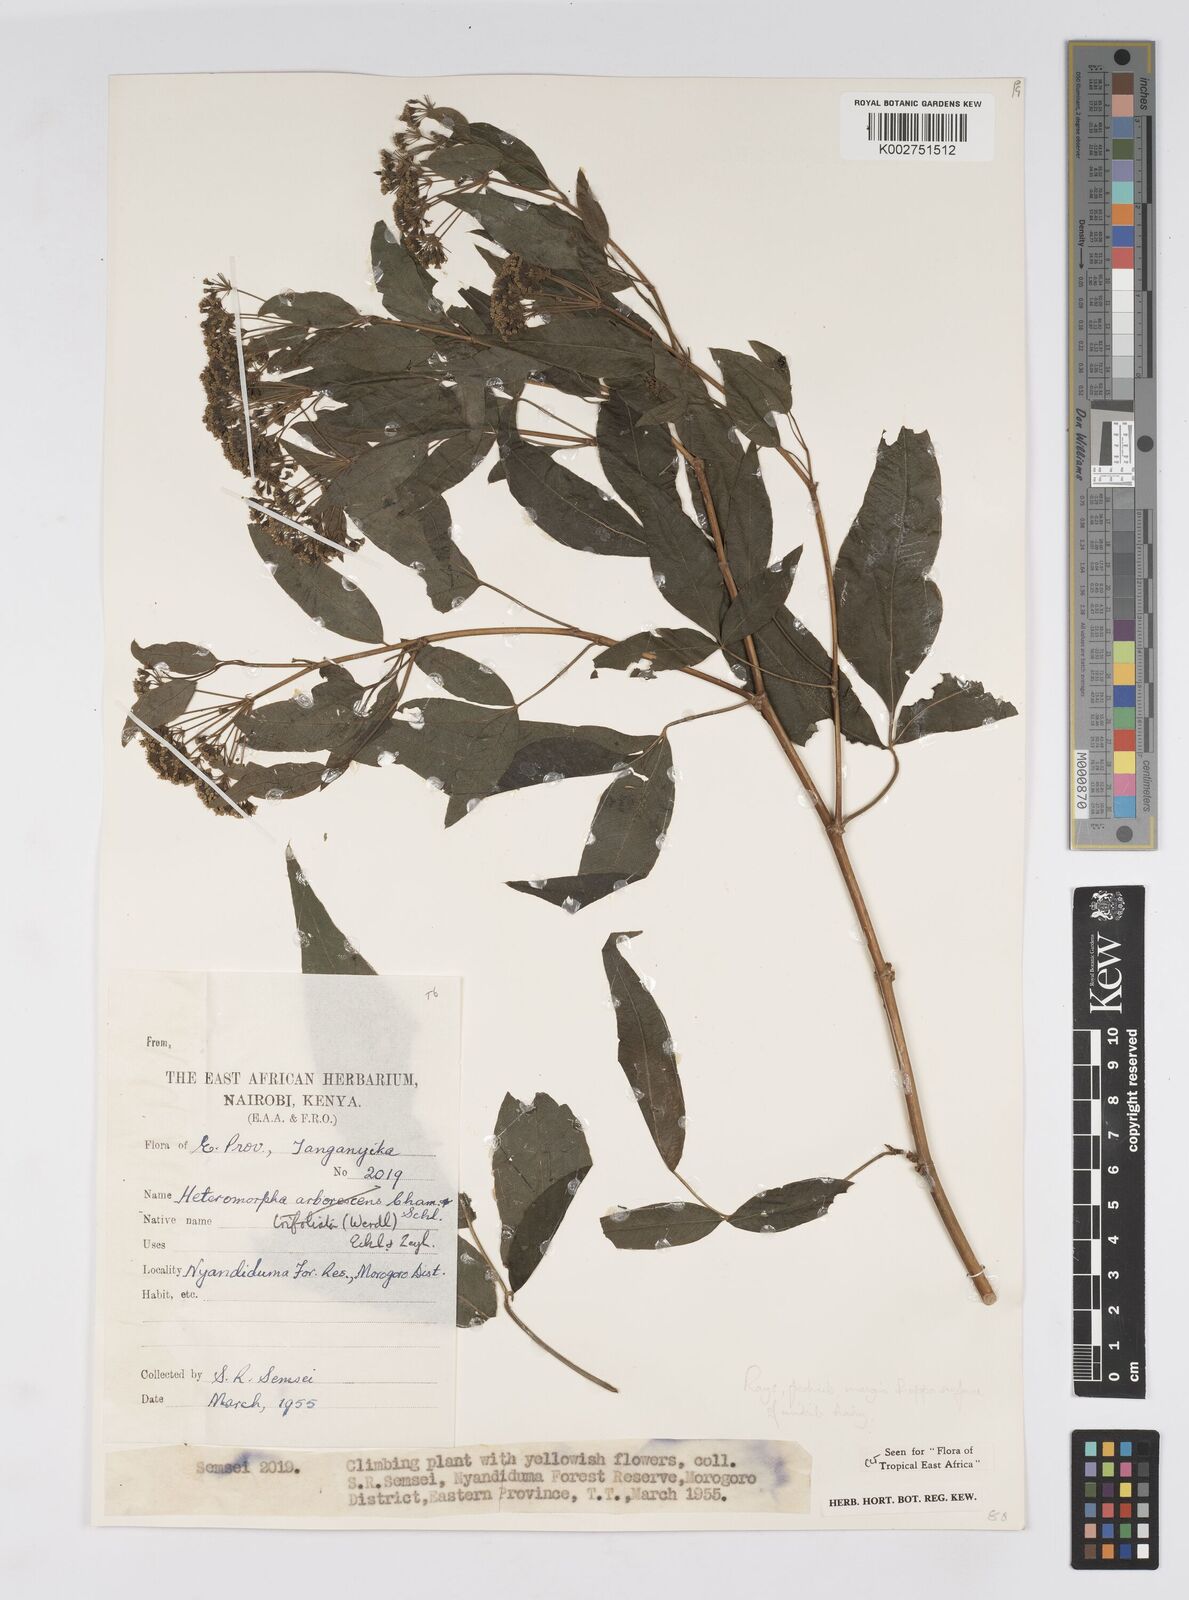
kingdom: Plantae
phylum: Tracheophyta
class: Magnoliopsida
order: Apiales
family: Apiaceae
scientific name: Apiaceae
